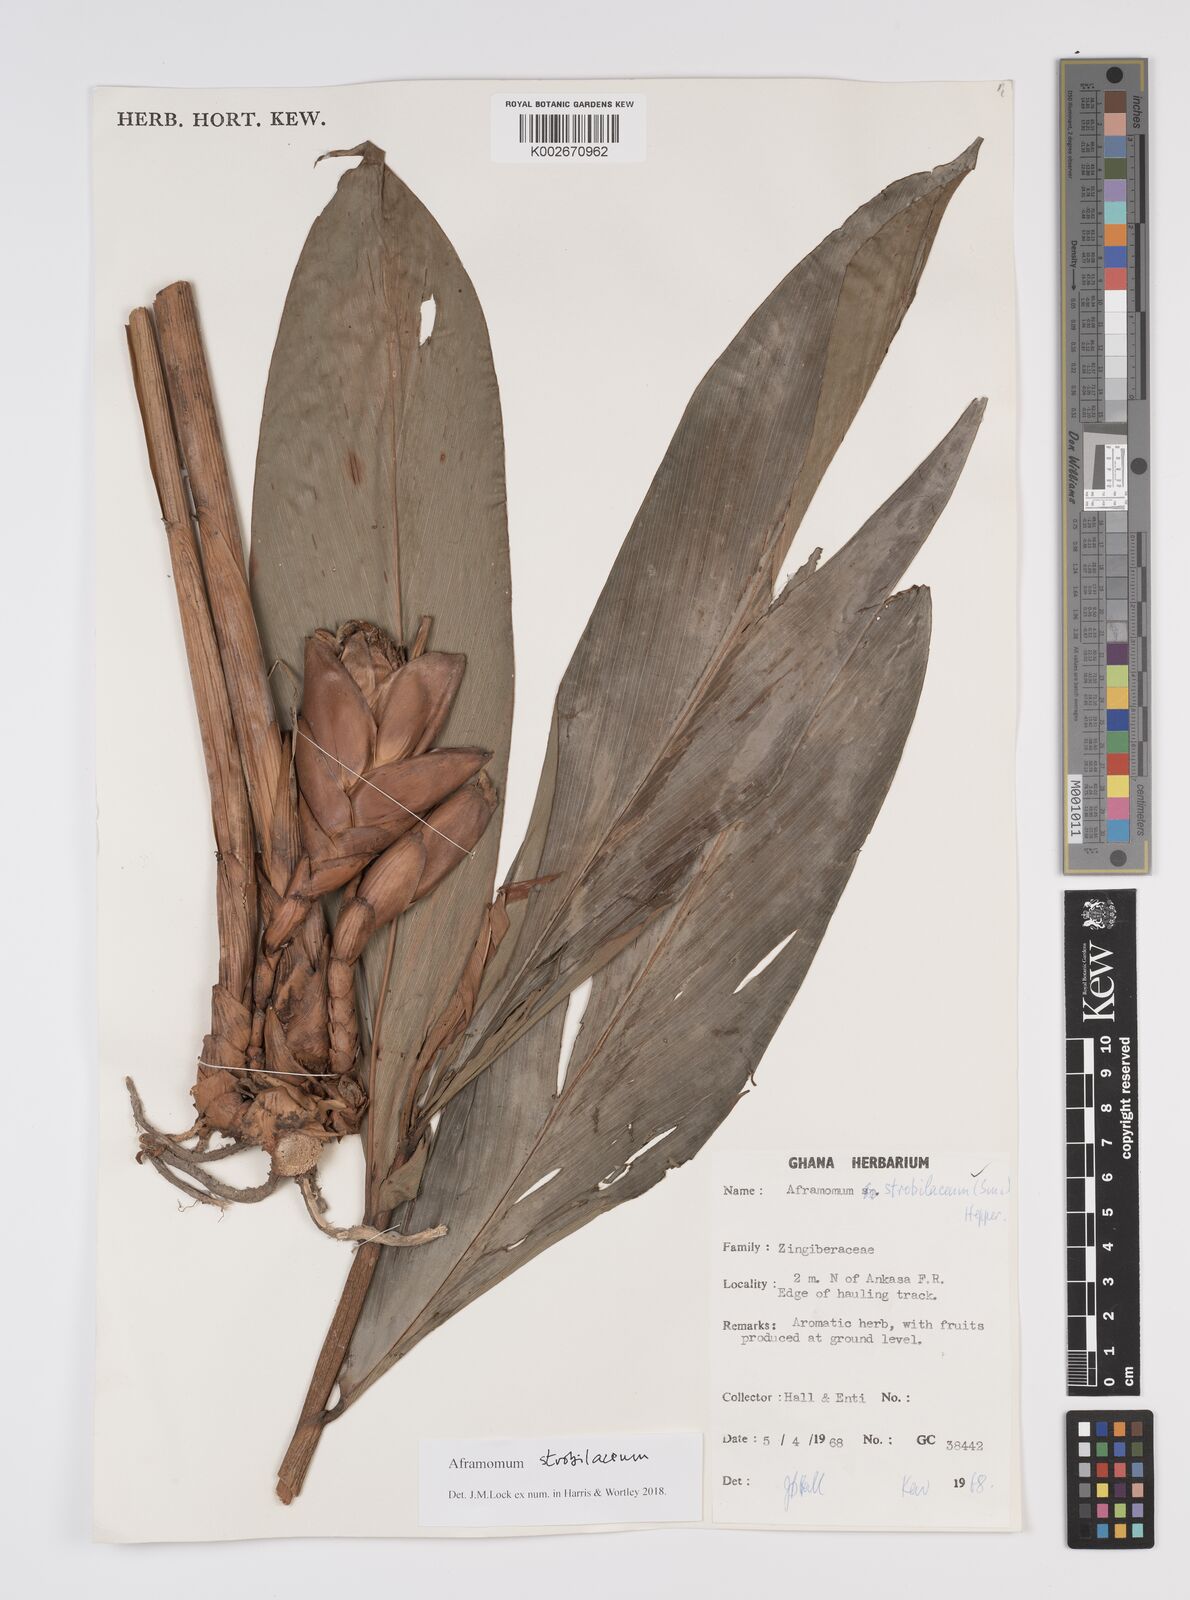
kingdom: Plantae
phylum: Tracheophyta
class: Liliopsida
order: Zingiberales
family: Zingiberaceae
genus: Aframomum
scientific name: Aframomum strobilaceum
